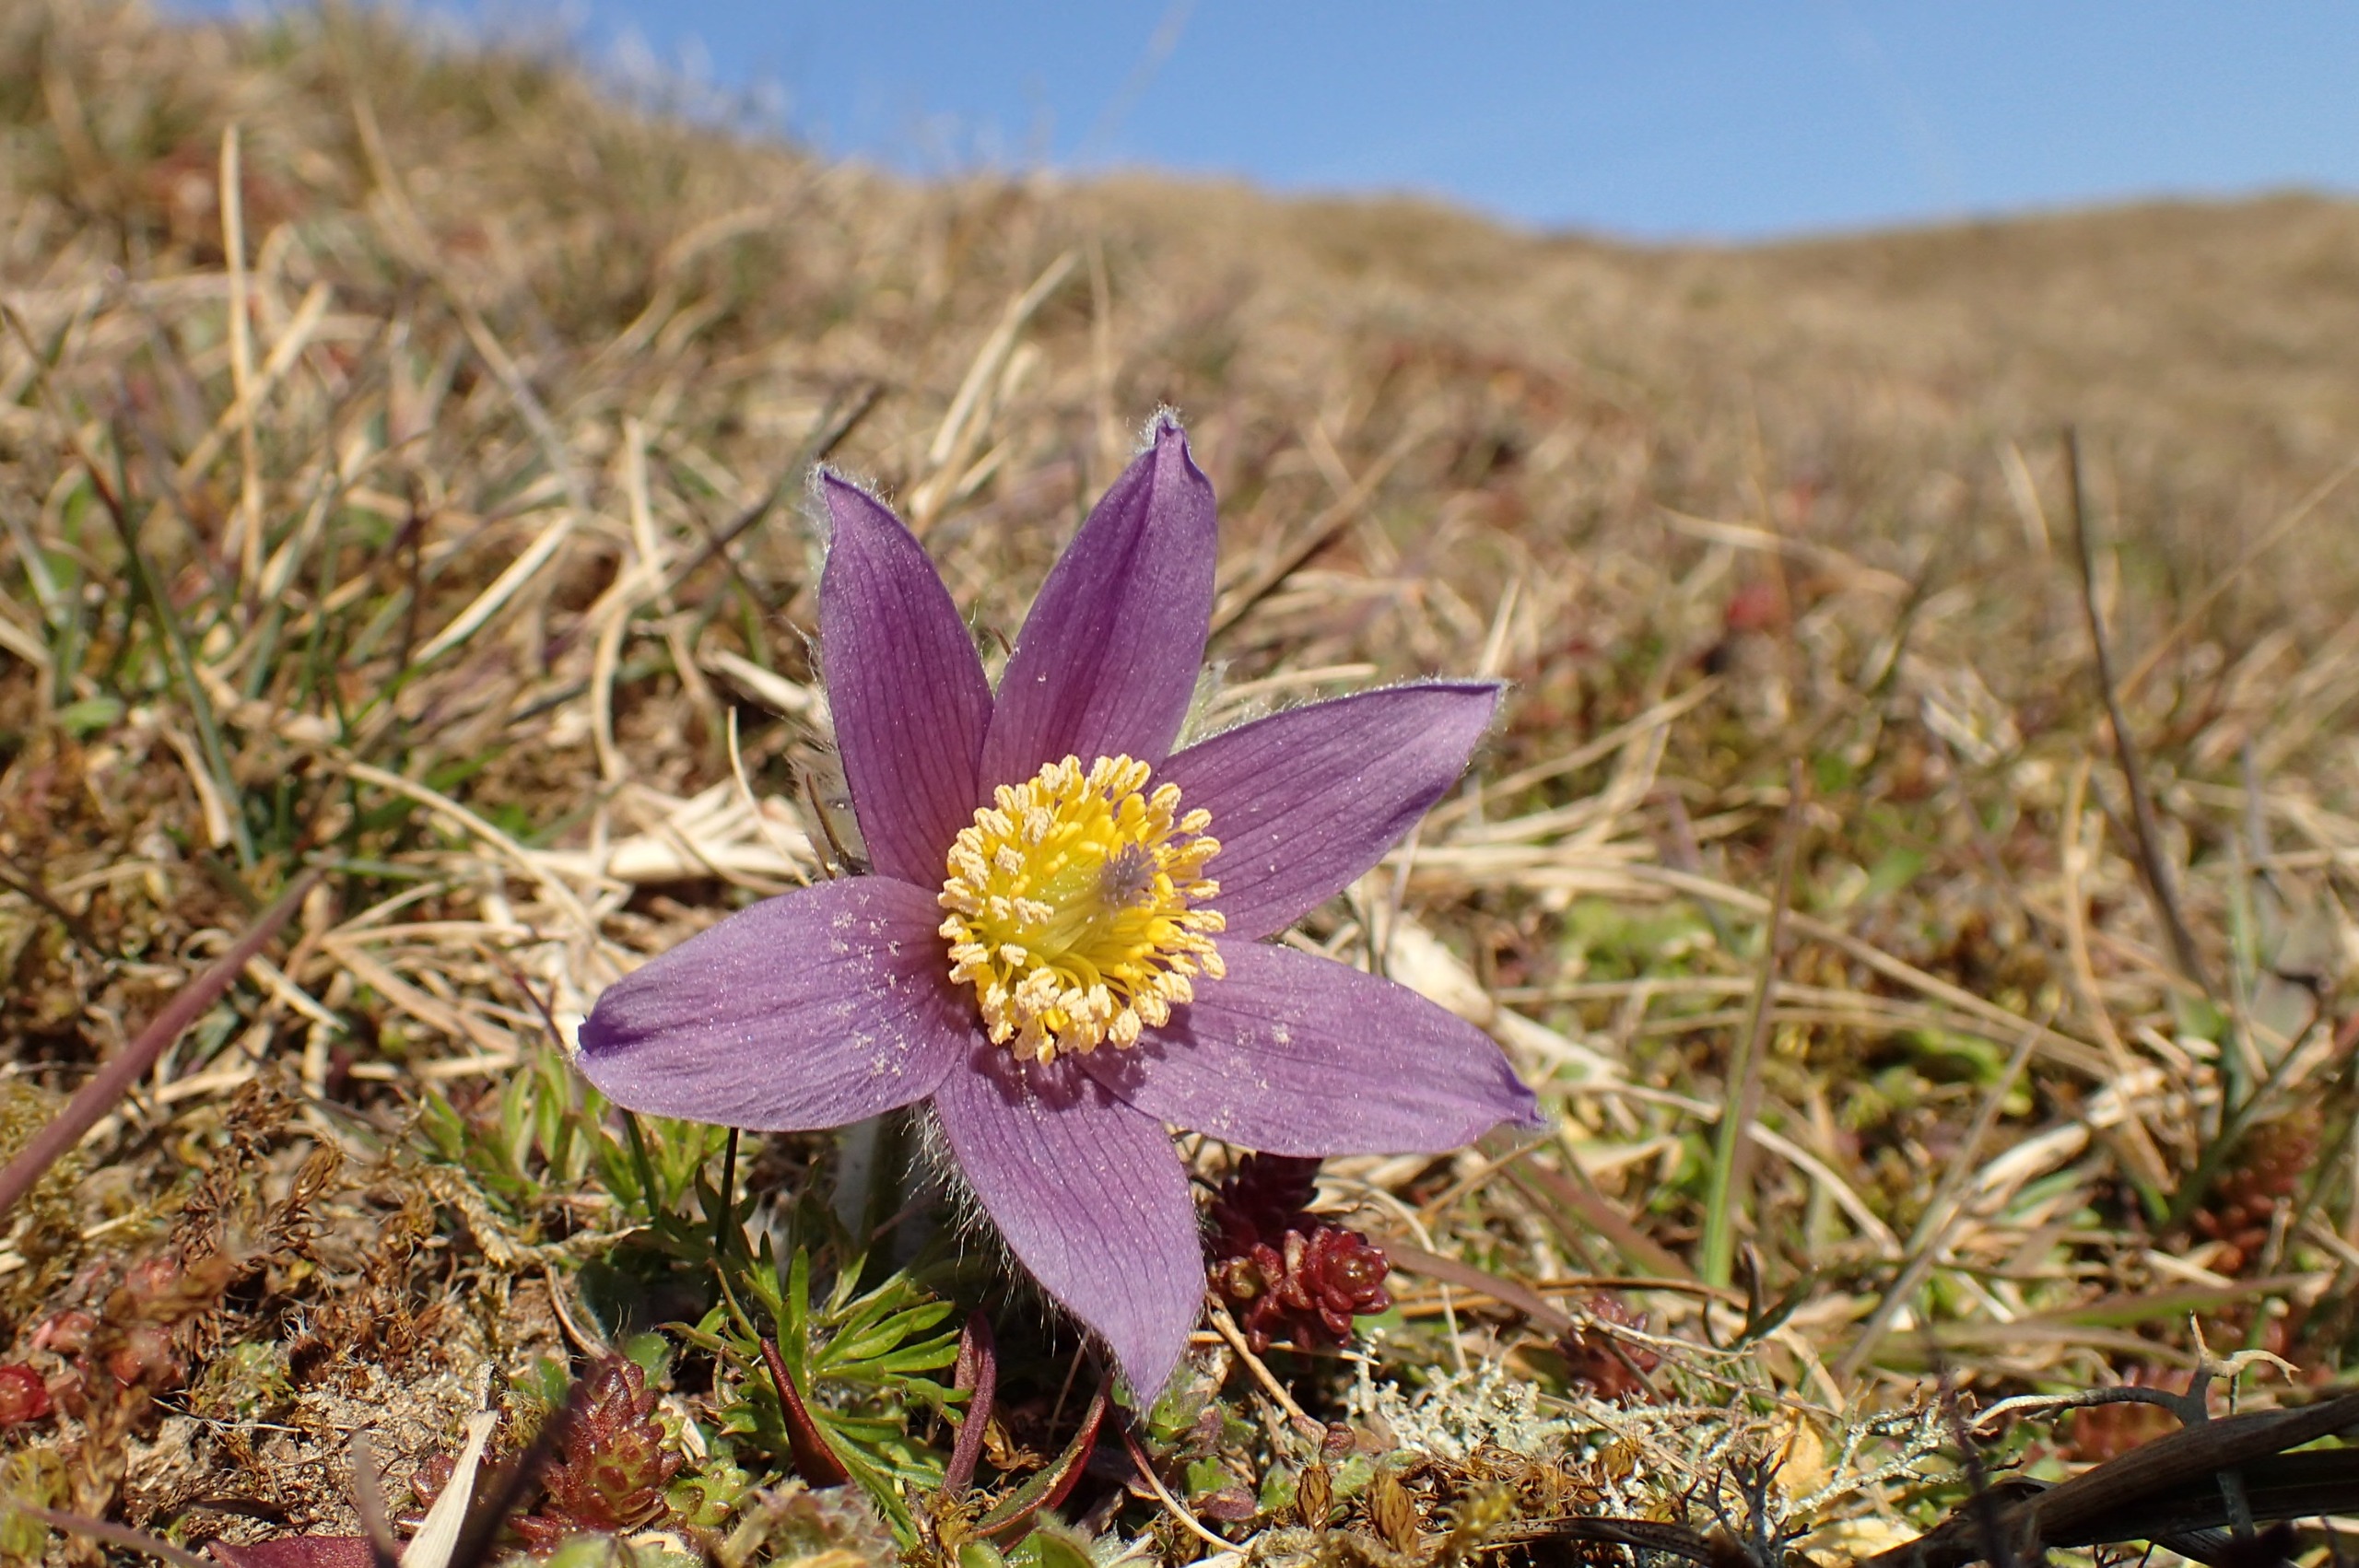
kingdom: Plantae
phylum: Tracheophyta
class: Magnoliopsida
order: Ranunculales
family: Ranunculaceae
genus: Pulsatilla
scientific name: Pulsatilla vulgaris
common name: Opret kobjælde
